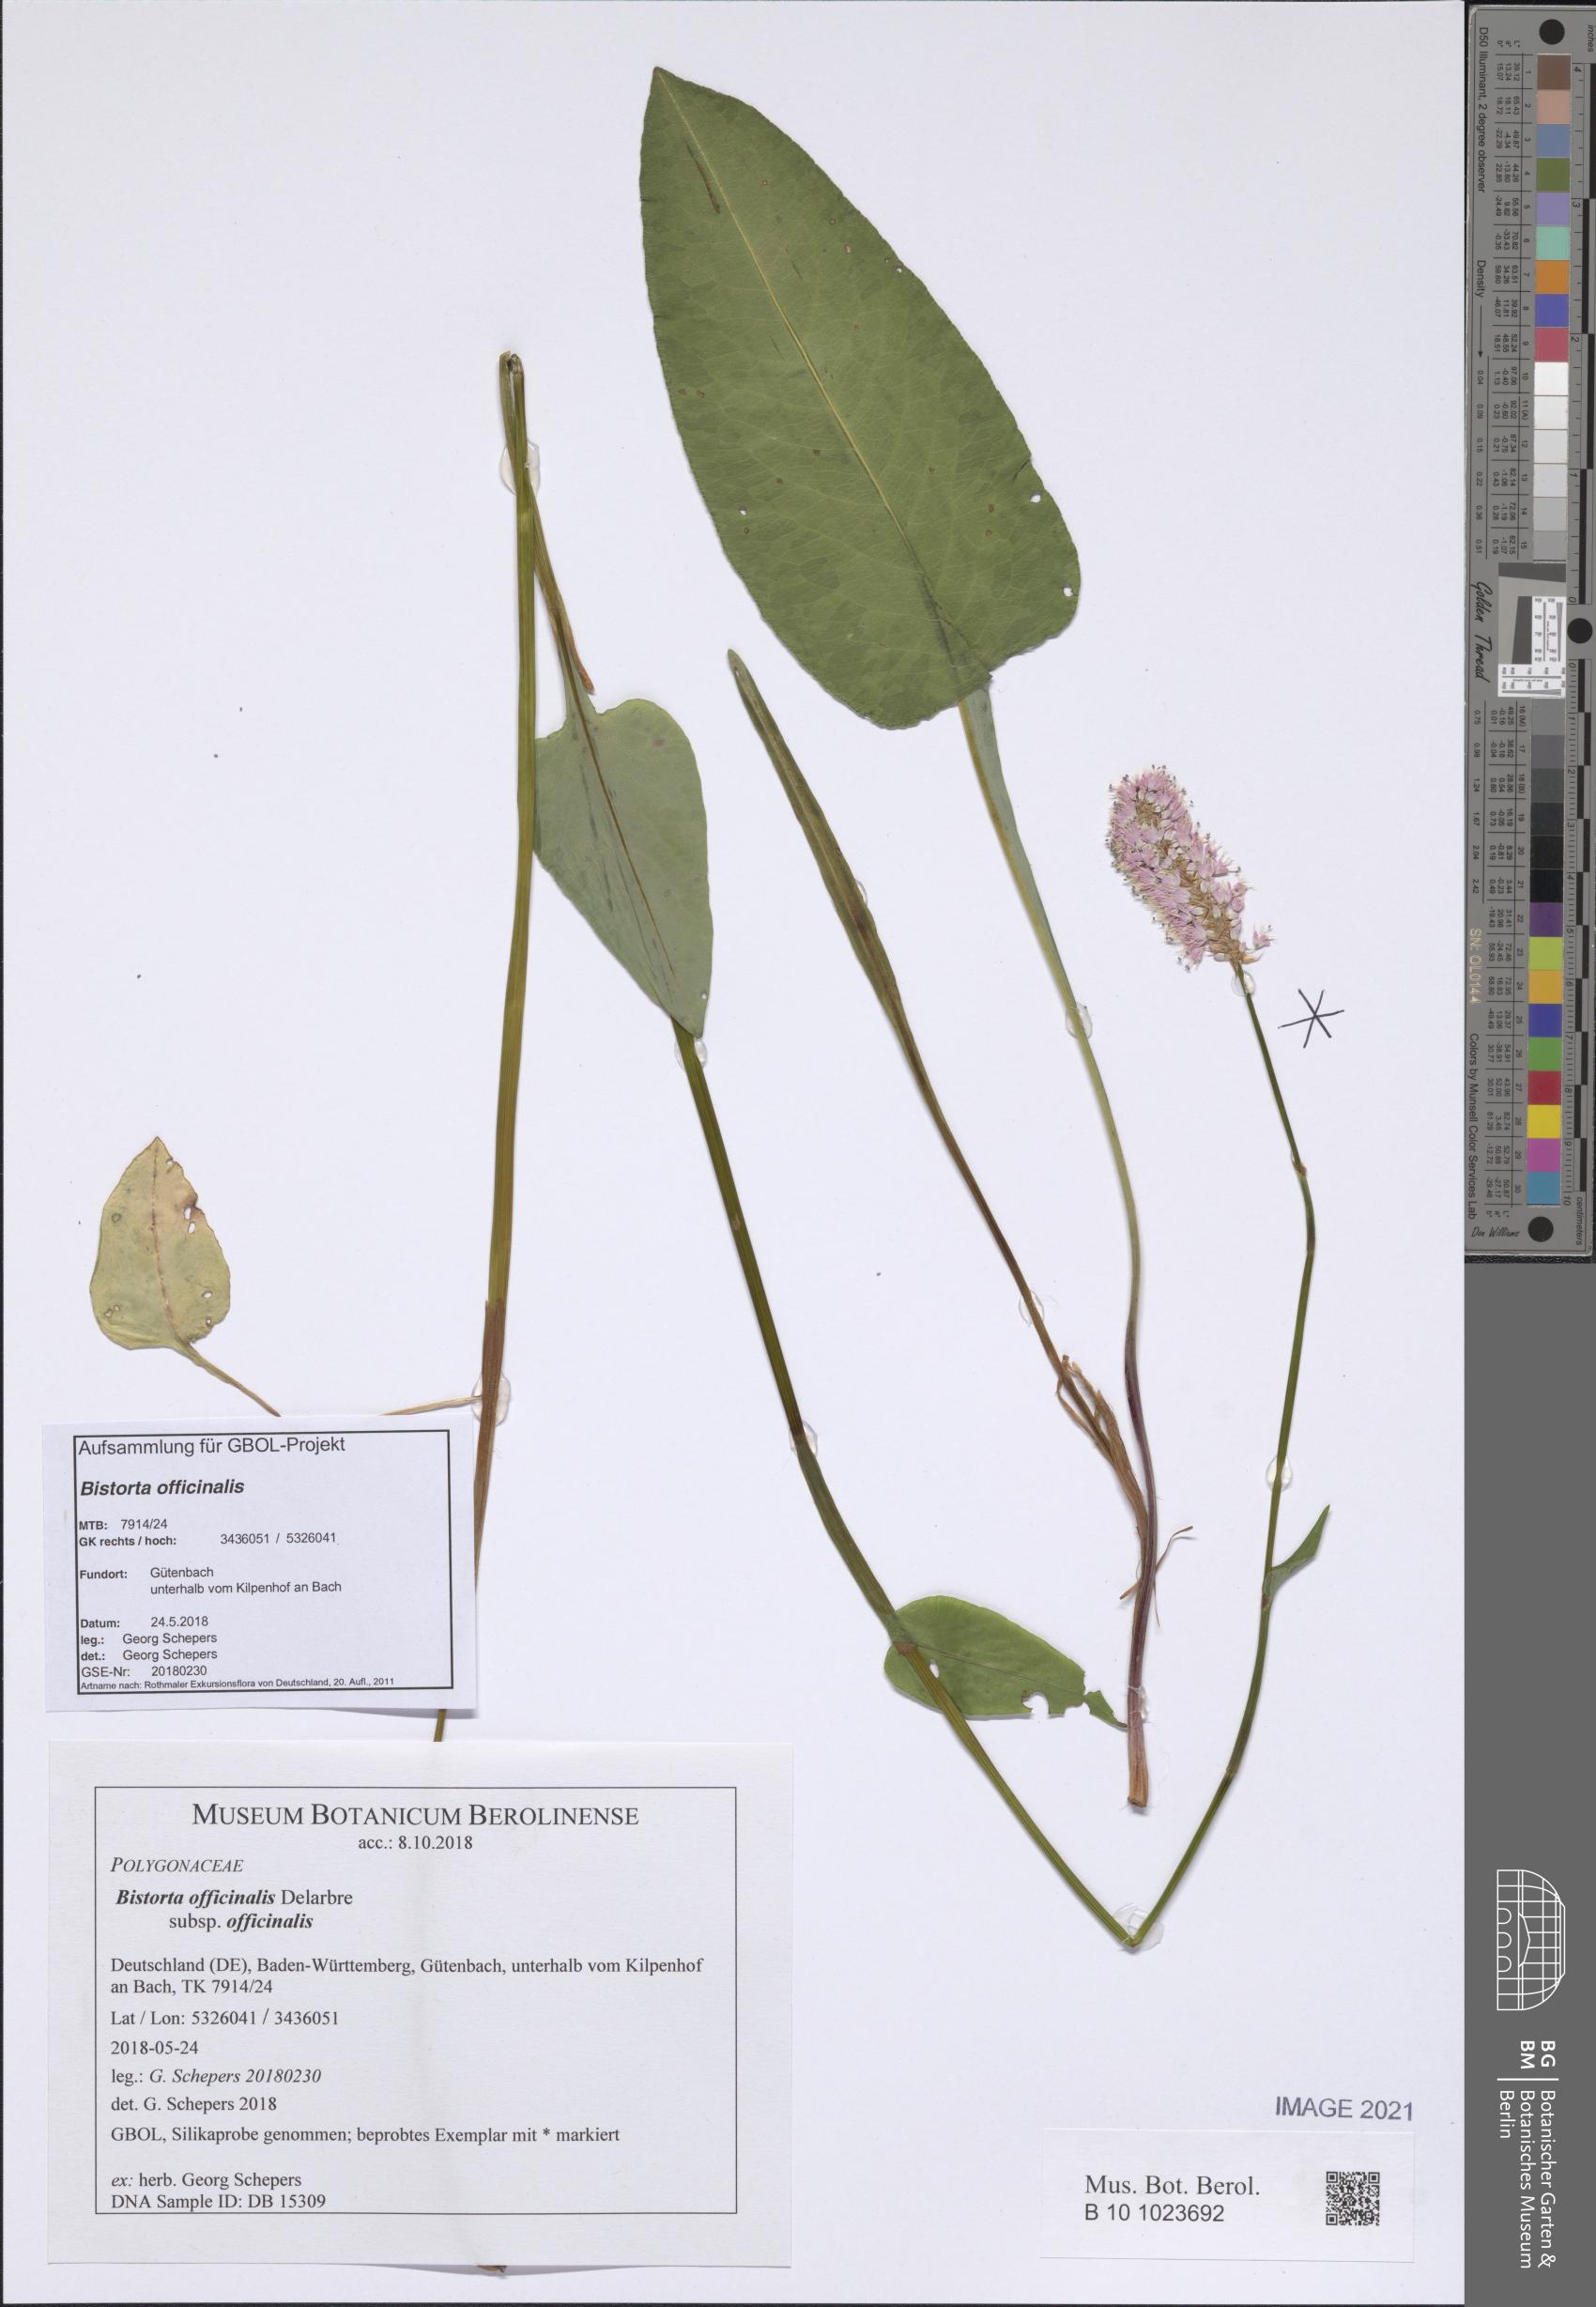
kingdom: Plantae
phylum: Tracheophyta
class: Magnoliopsida
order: Caryophyllales
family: Polygonaceae
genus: Bistorta
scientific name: Bistorta officinalis
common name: Common bistort
